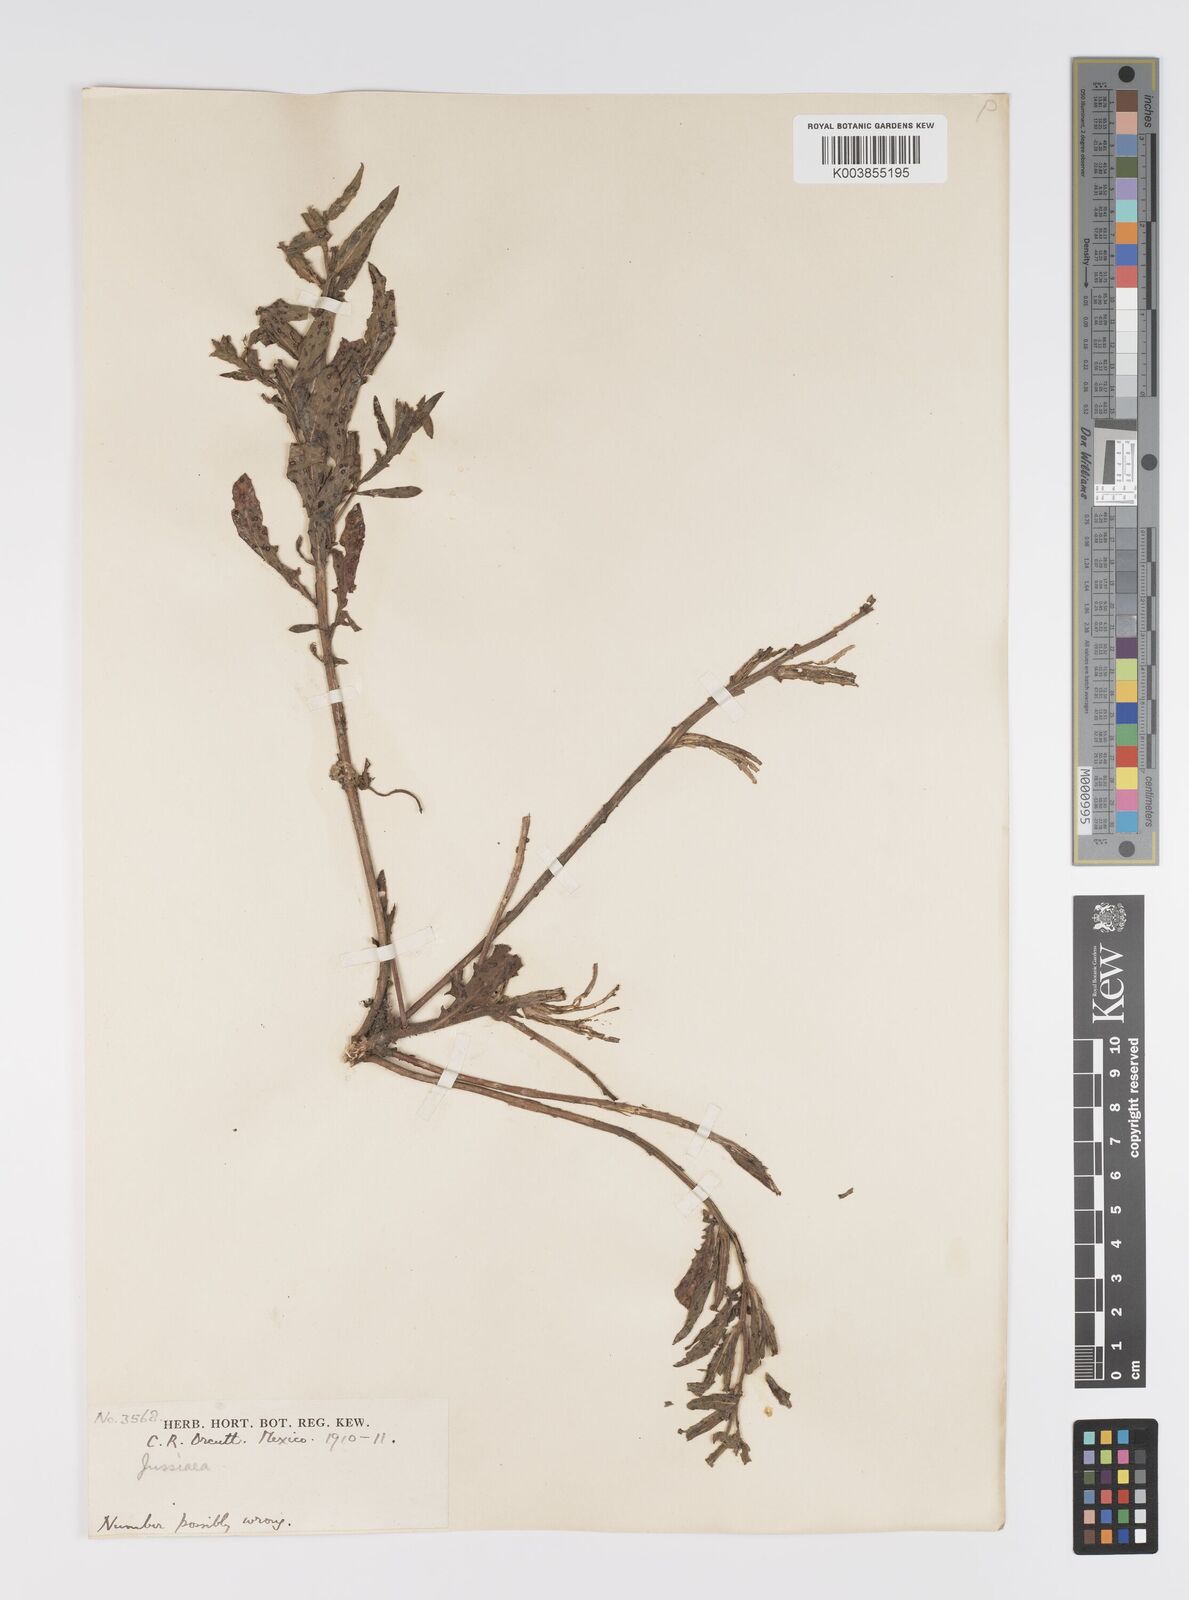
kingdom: Plantae
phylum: Tracheophyta
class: Magnoliopsida
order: Myrtales
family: Onagraceae
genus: Ludwigia
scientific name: Ludwigia
